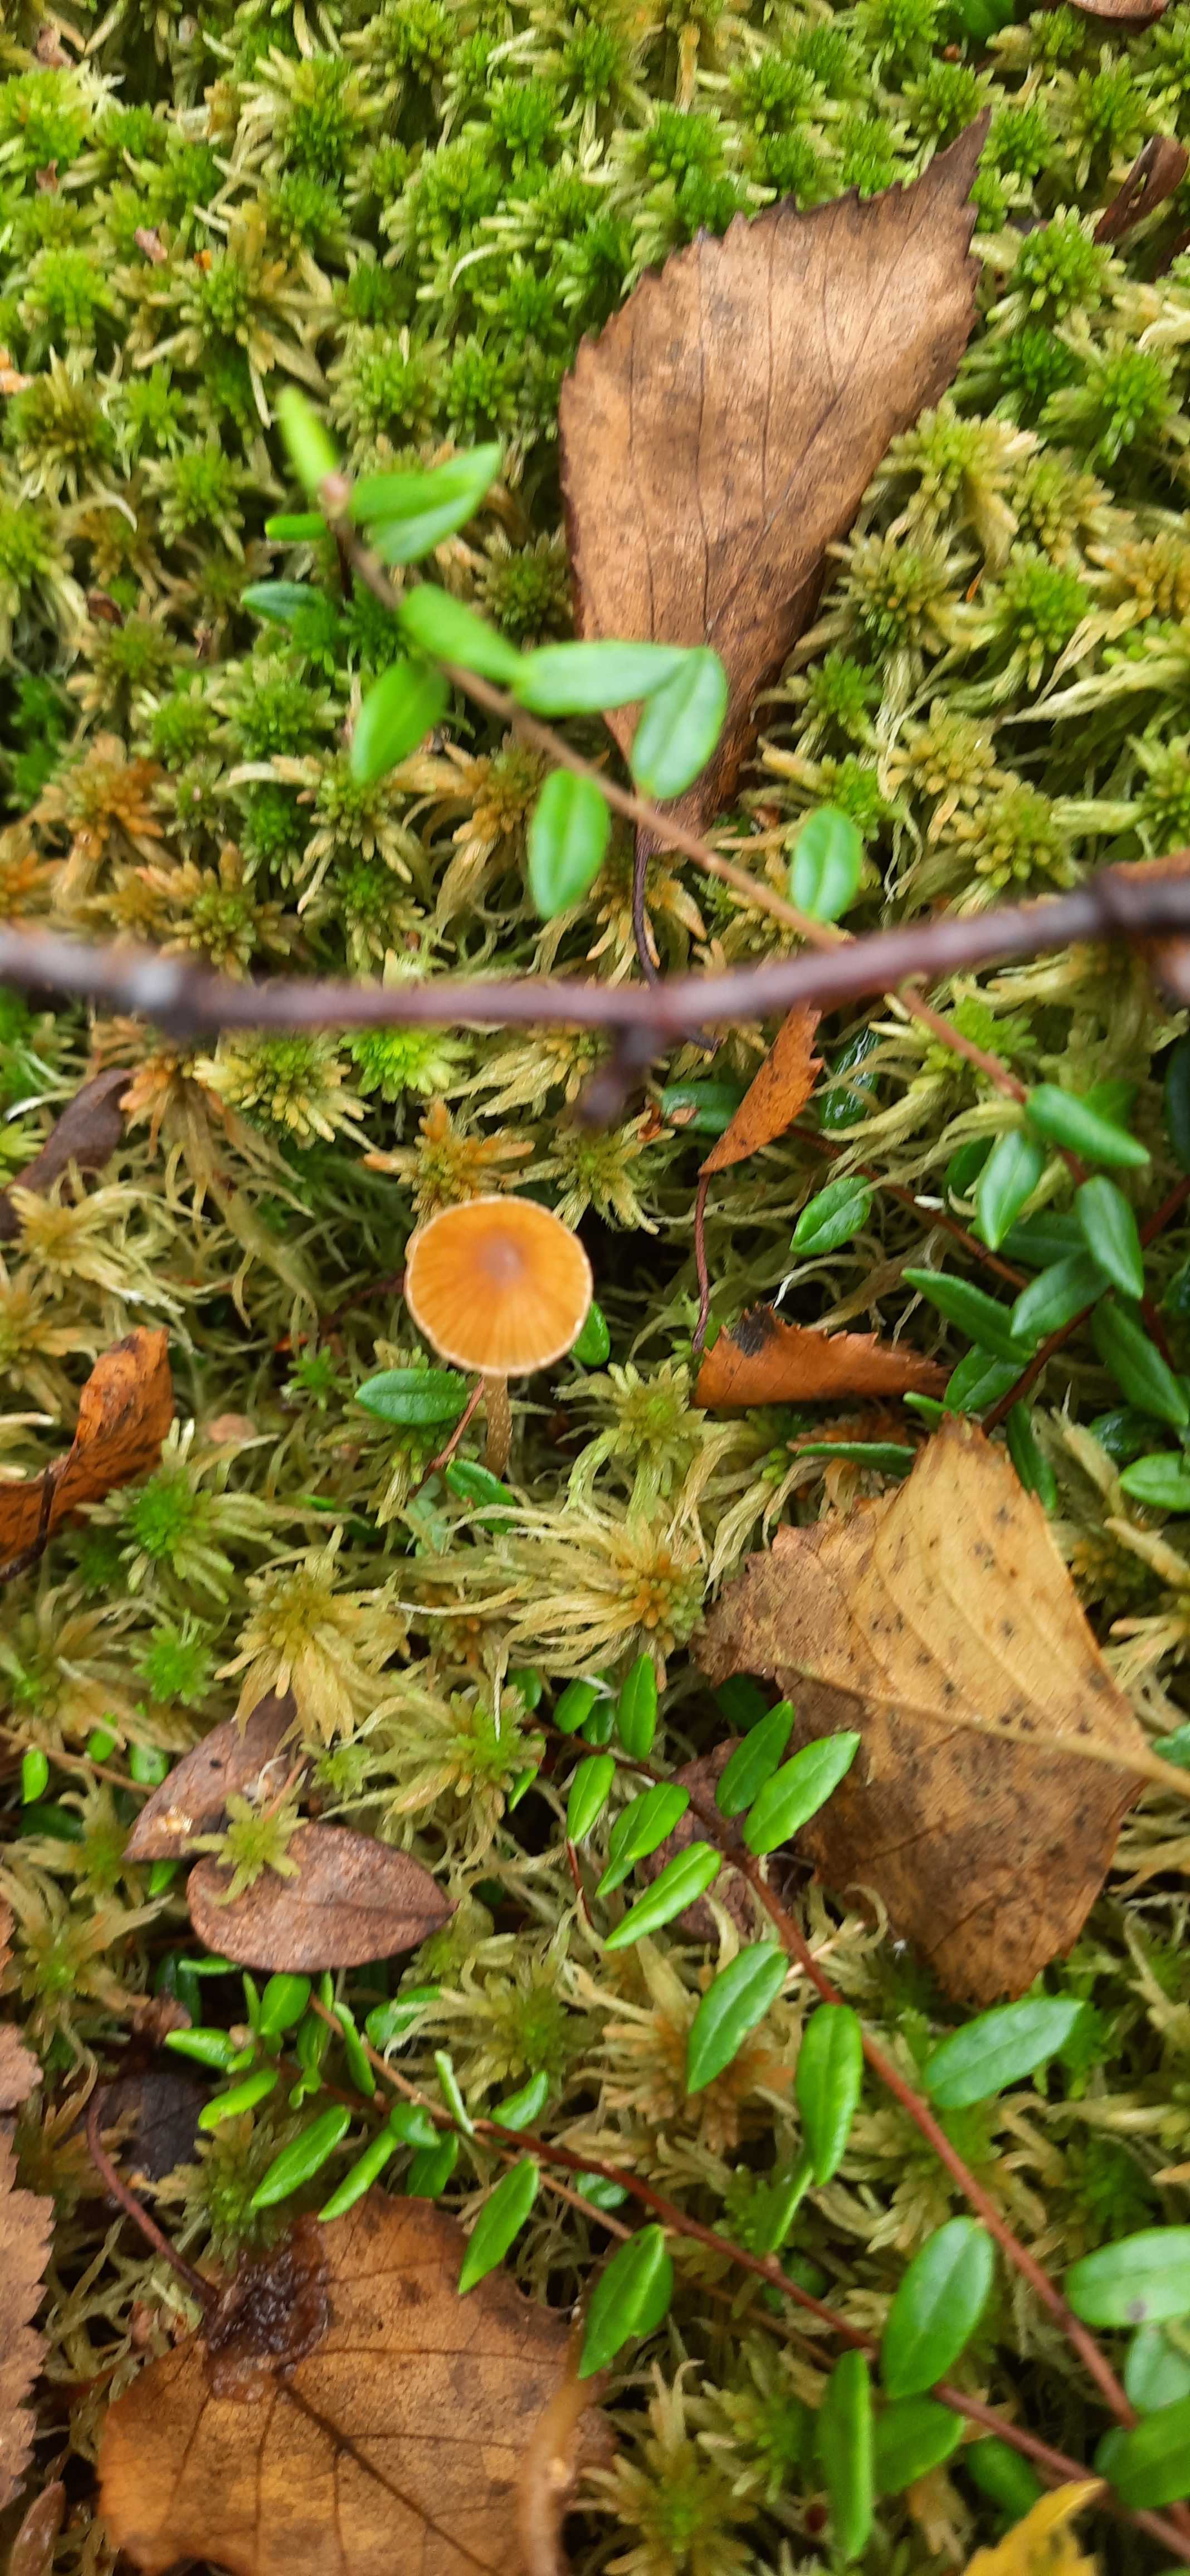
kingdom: Fungi
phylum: Basidiomycota
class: Agaricomycetes
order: Agaricales
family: Hymenogastraceae
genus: Galerina
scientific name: Galerina
